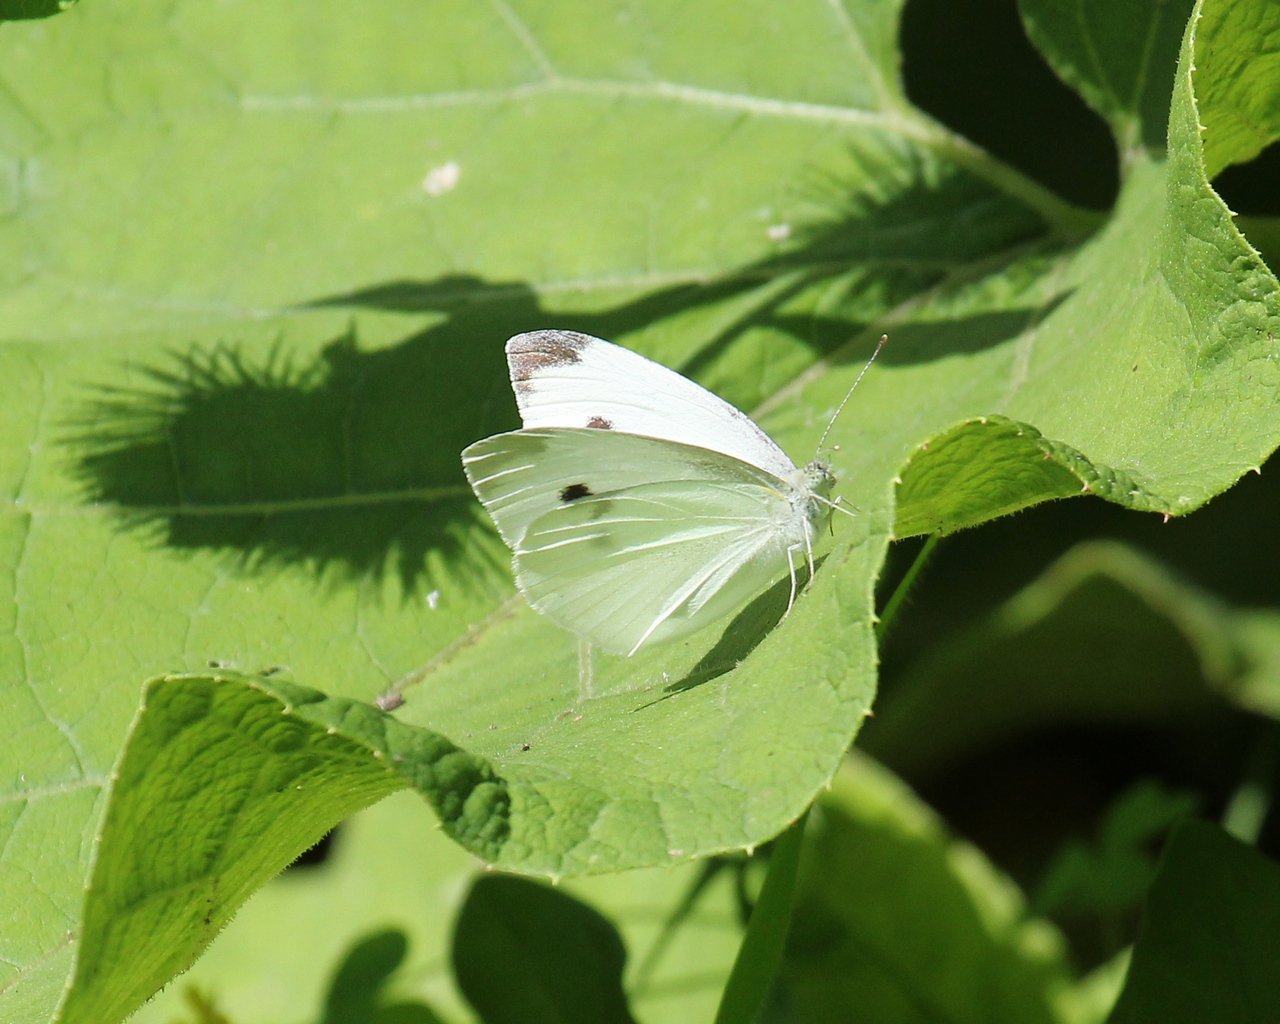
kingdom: Animalia
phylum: Arthropoda
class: Insecta
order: Lepidoptera
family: Pieridae
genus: Pieris
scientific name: Pieris rapae
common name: Cabbage White
